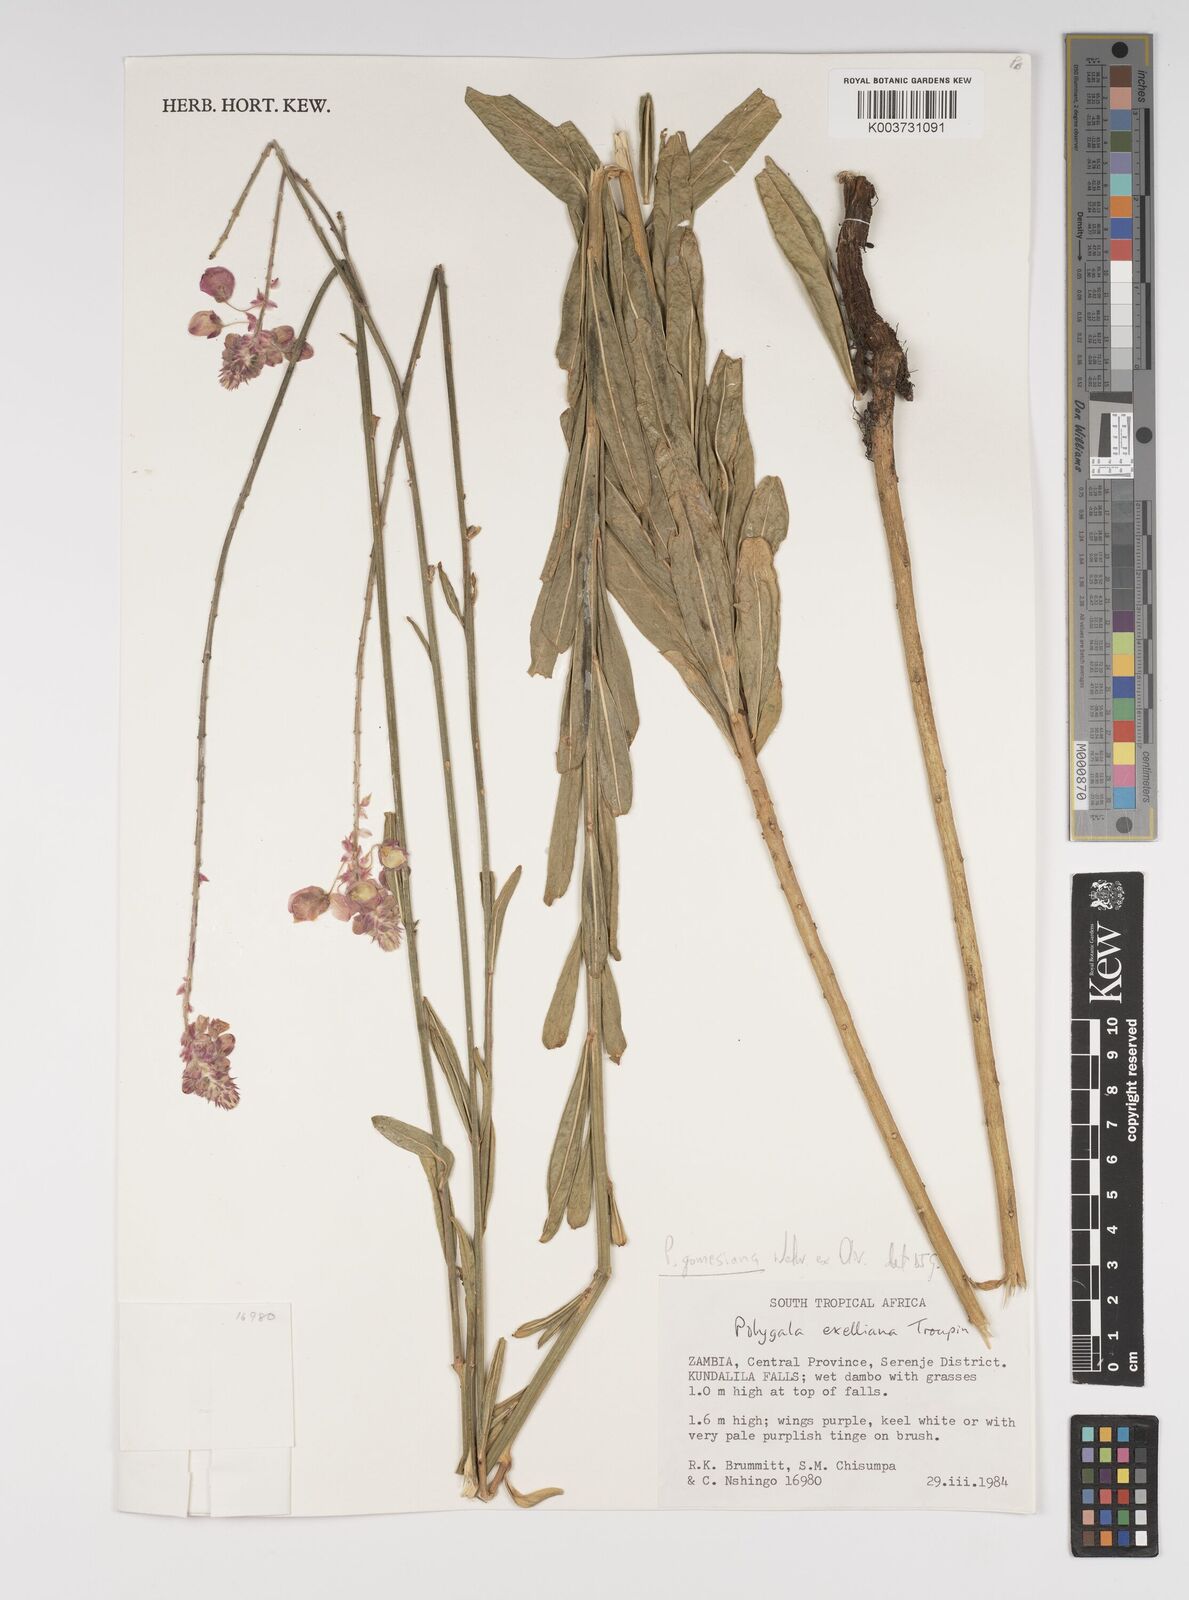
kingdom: Plantae
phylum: Tracheophyta
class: Magnoliopsida
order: Fabales
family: Polygalaceae
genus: Polygala
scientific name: Polygala gomesiana
